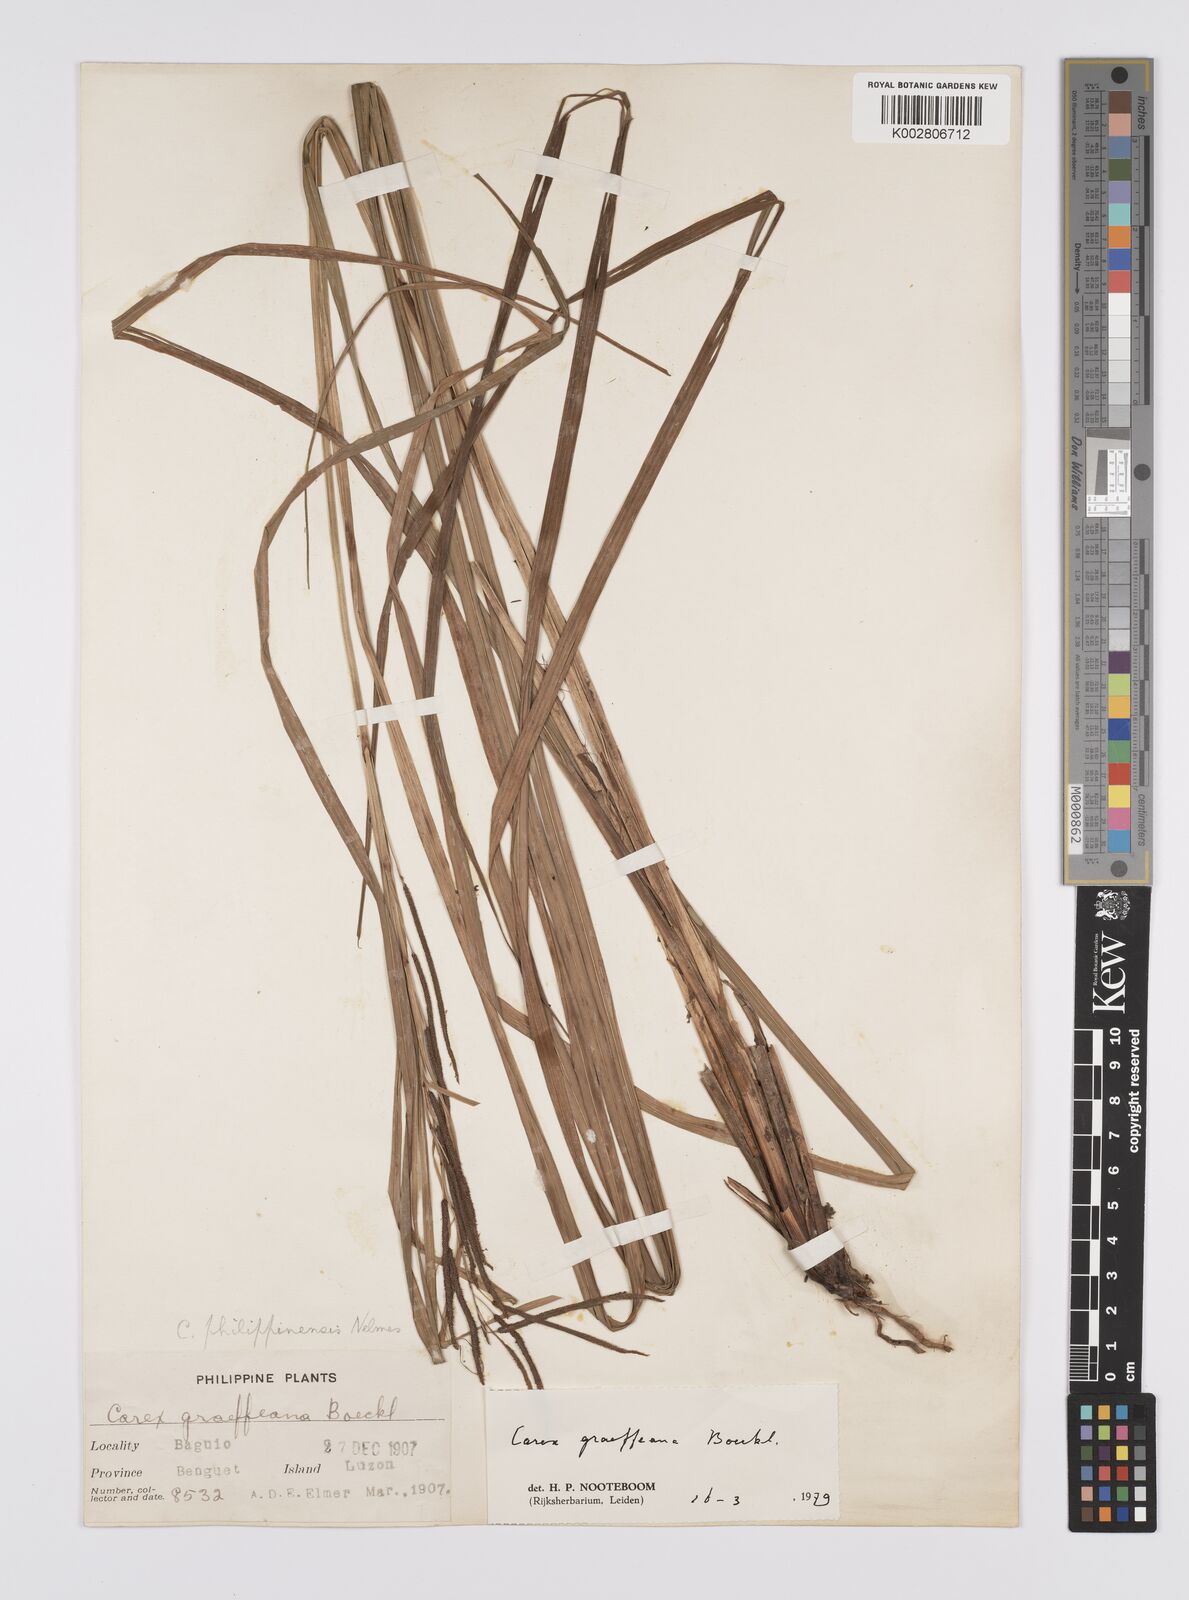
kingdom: Plantae
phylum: Tracheophyta
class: Liliopsida
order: Poales
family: Cyperaceae
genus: Carex
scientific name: Carex graeffeana
